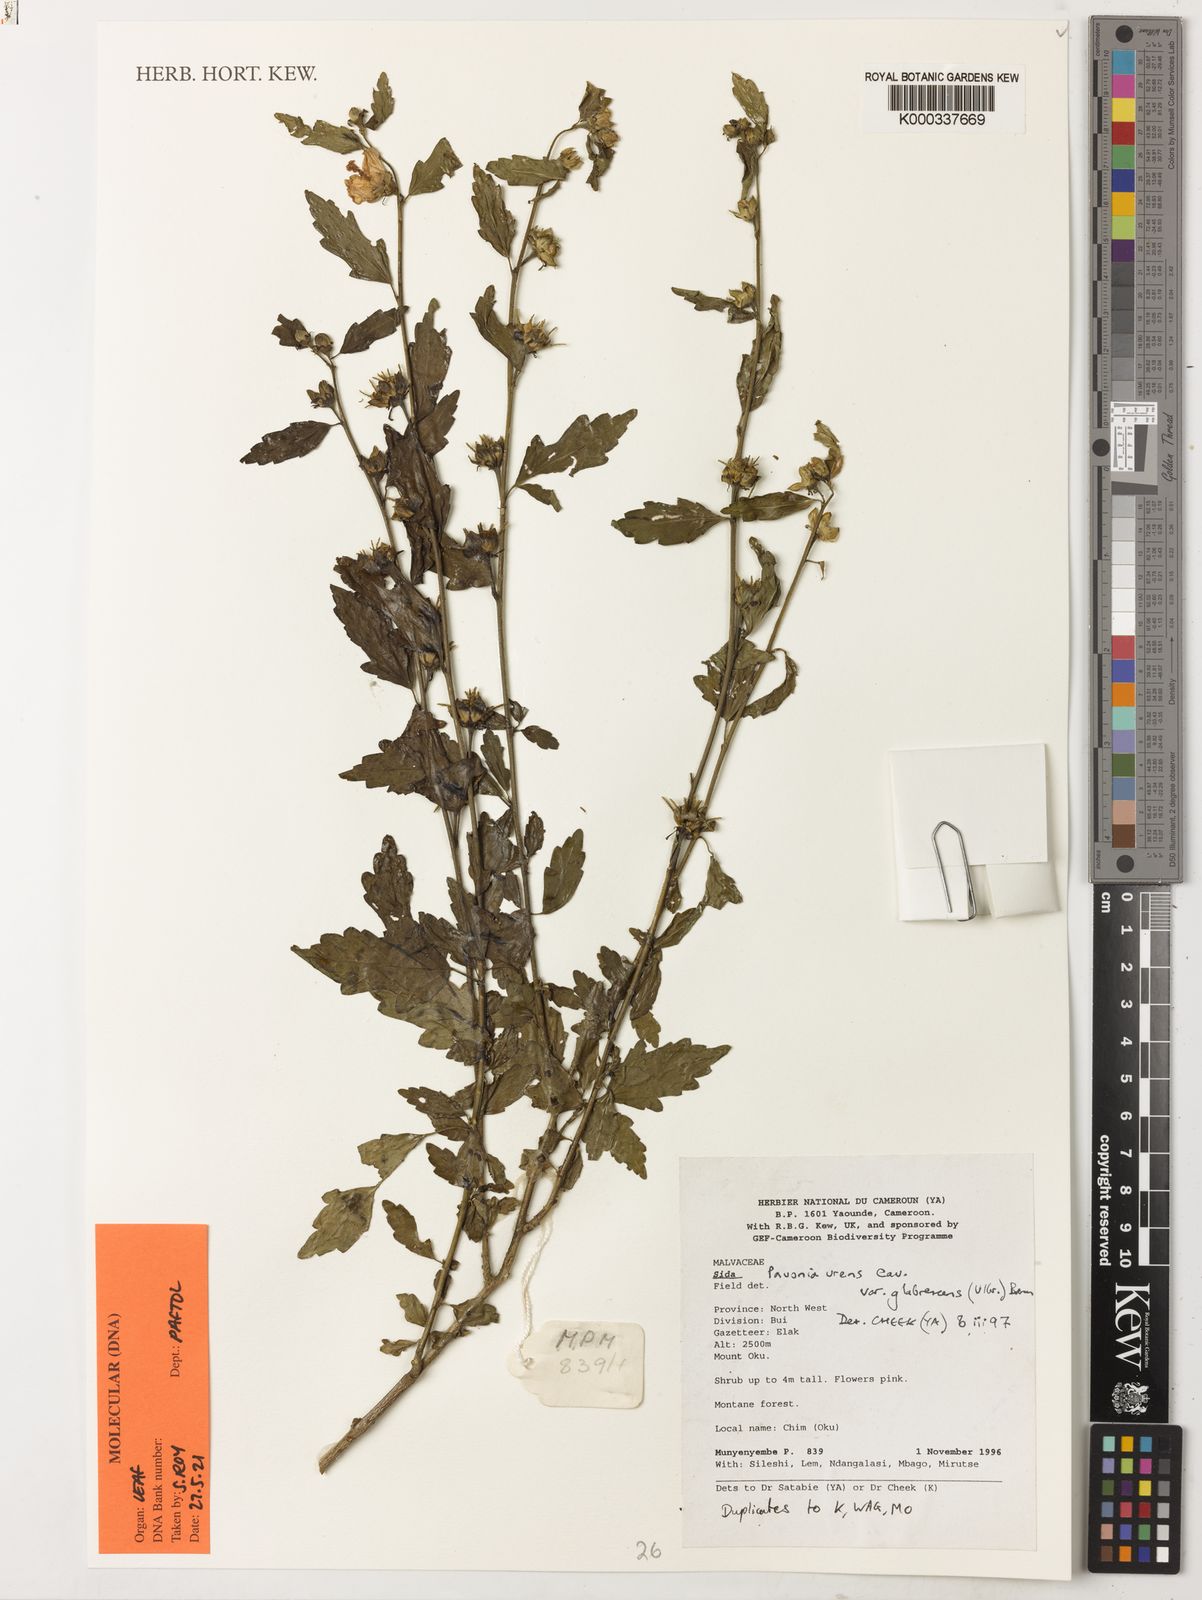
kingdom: Plantae
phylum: Tracheophyta
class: Magnoliopsida
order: Malvales
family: Malvaceae
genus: Pavonia
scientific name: Pavonia urens
